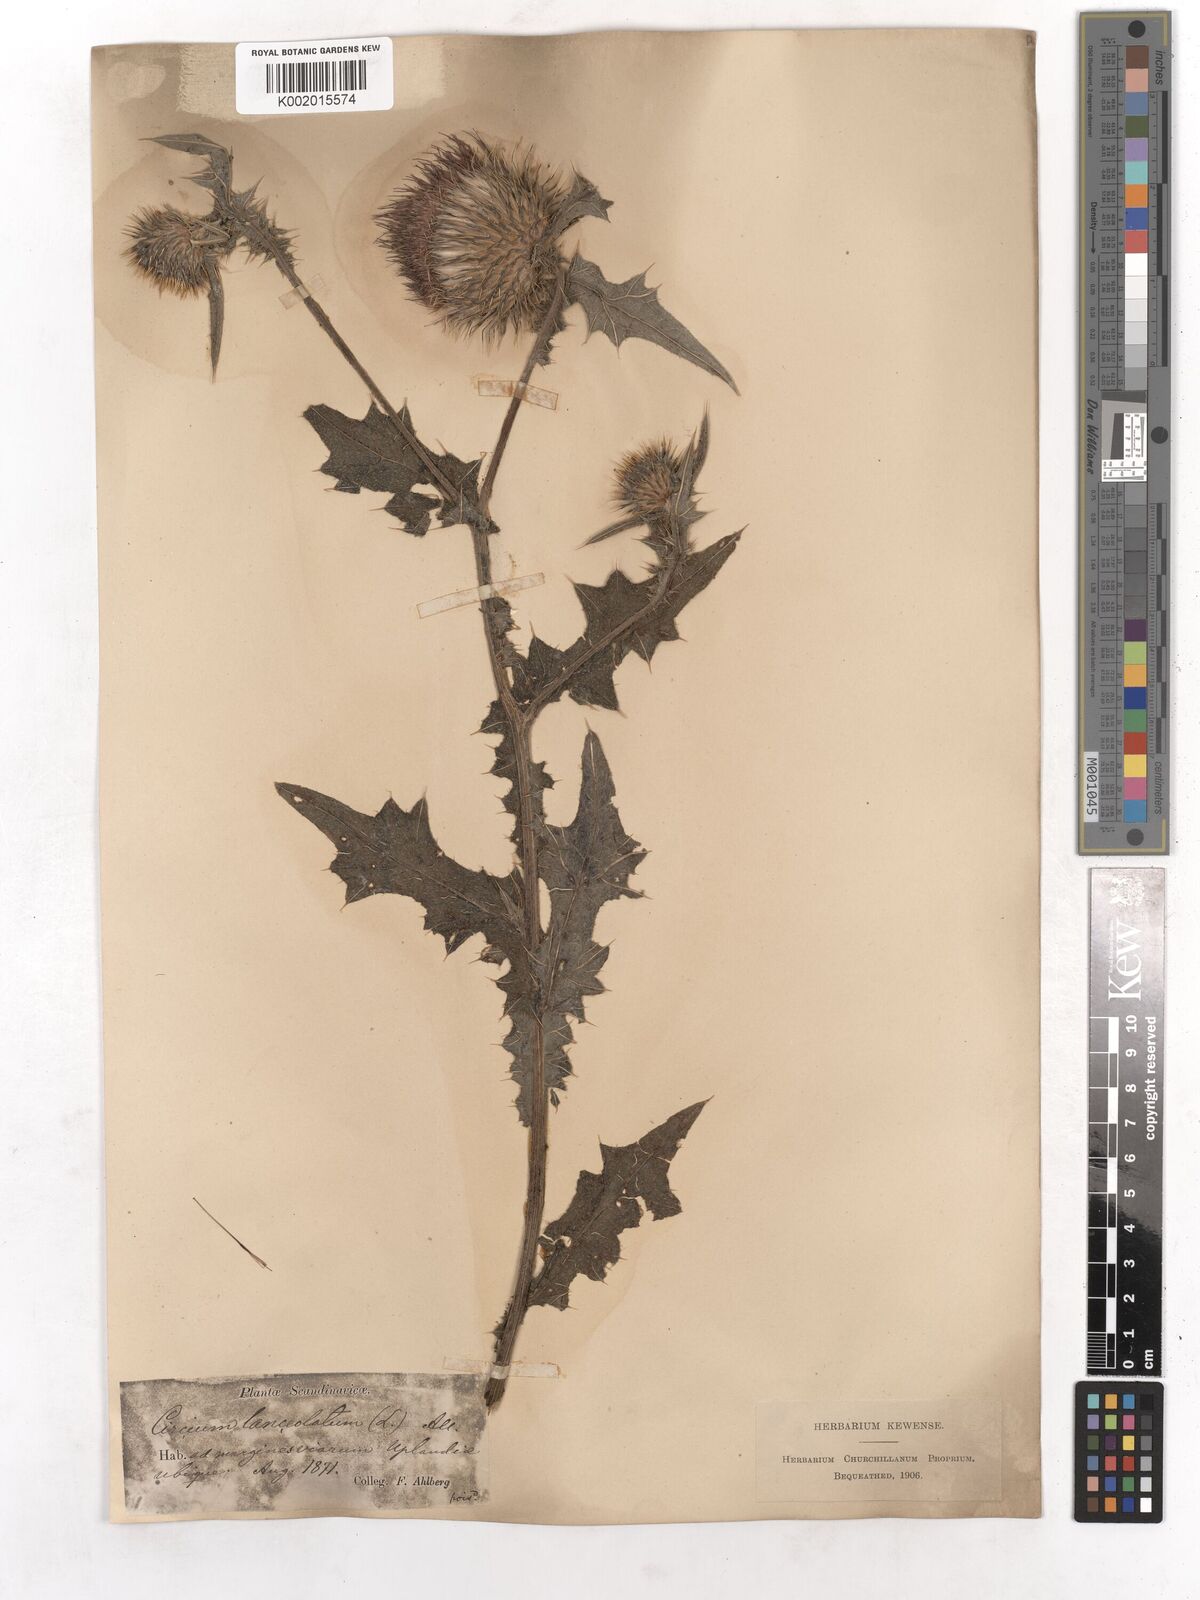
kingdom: Plantae
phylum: Tracheophyta
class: Magnoliopsida
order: Asterales
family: Asteraceae
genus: Cirsium
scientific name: Cirsium vulgare
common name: Bull thistle
